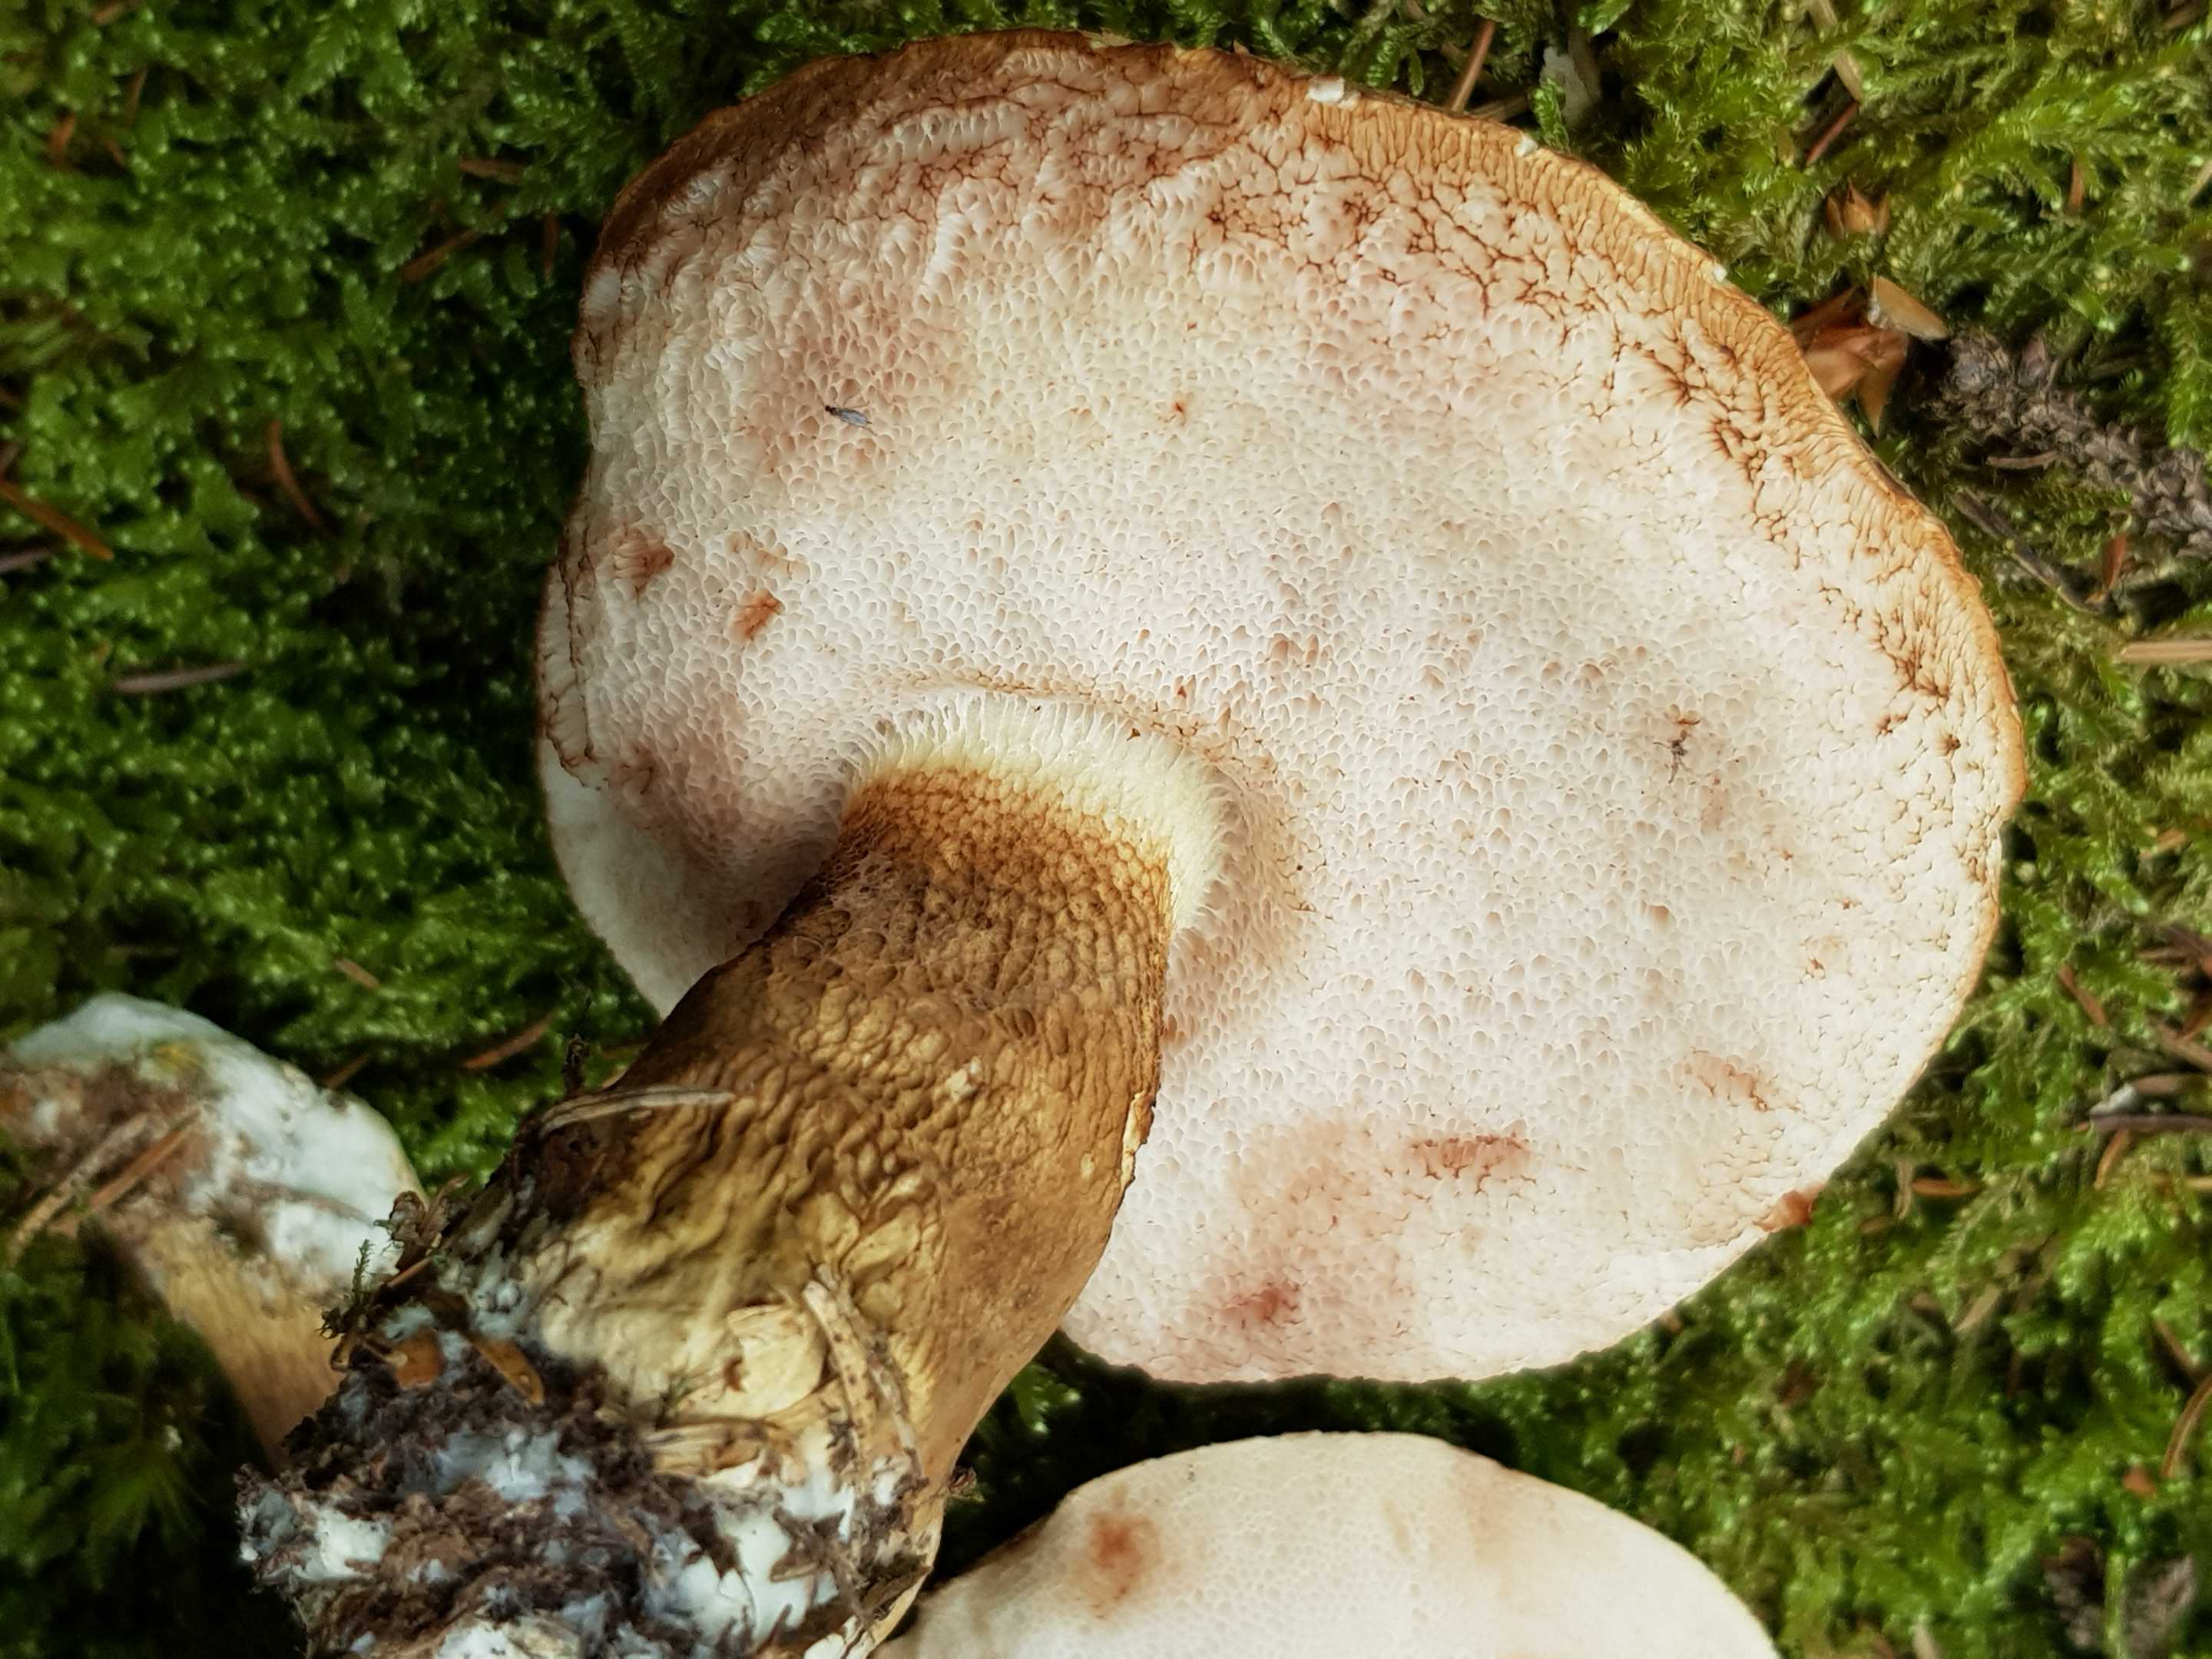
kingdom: Fungi
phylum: Basidiomycota
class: Agaricomycetes
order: Boletales
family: Boletaceae
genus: Tylopilus
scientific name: Tylopilus felleus
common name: galderørhat
